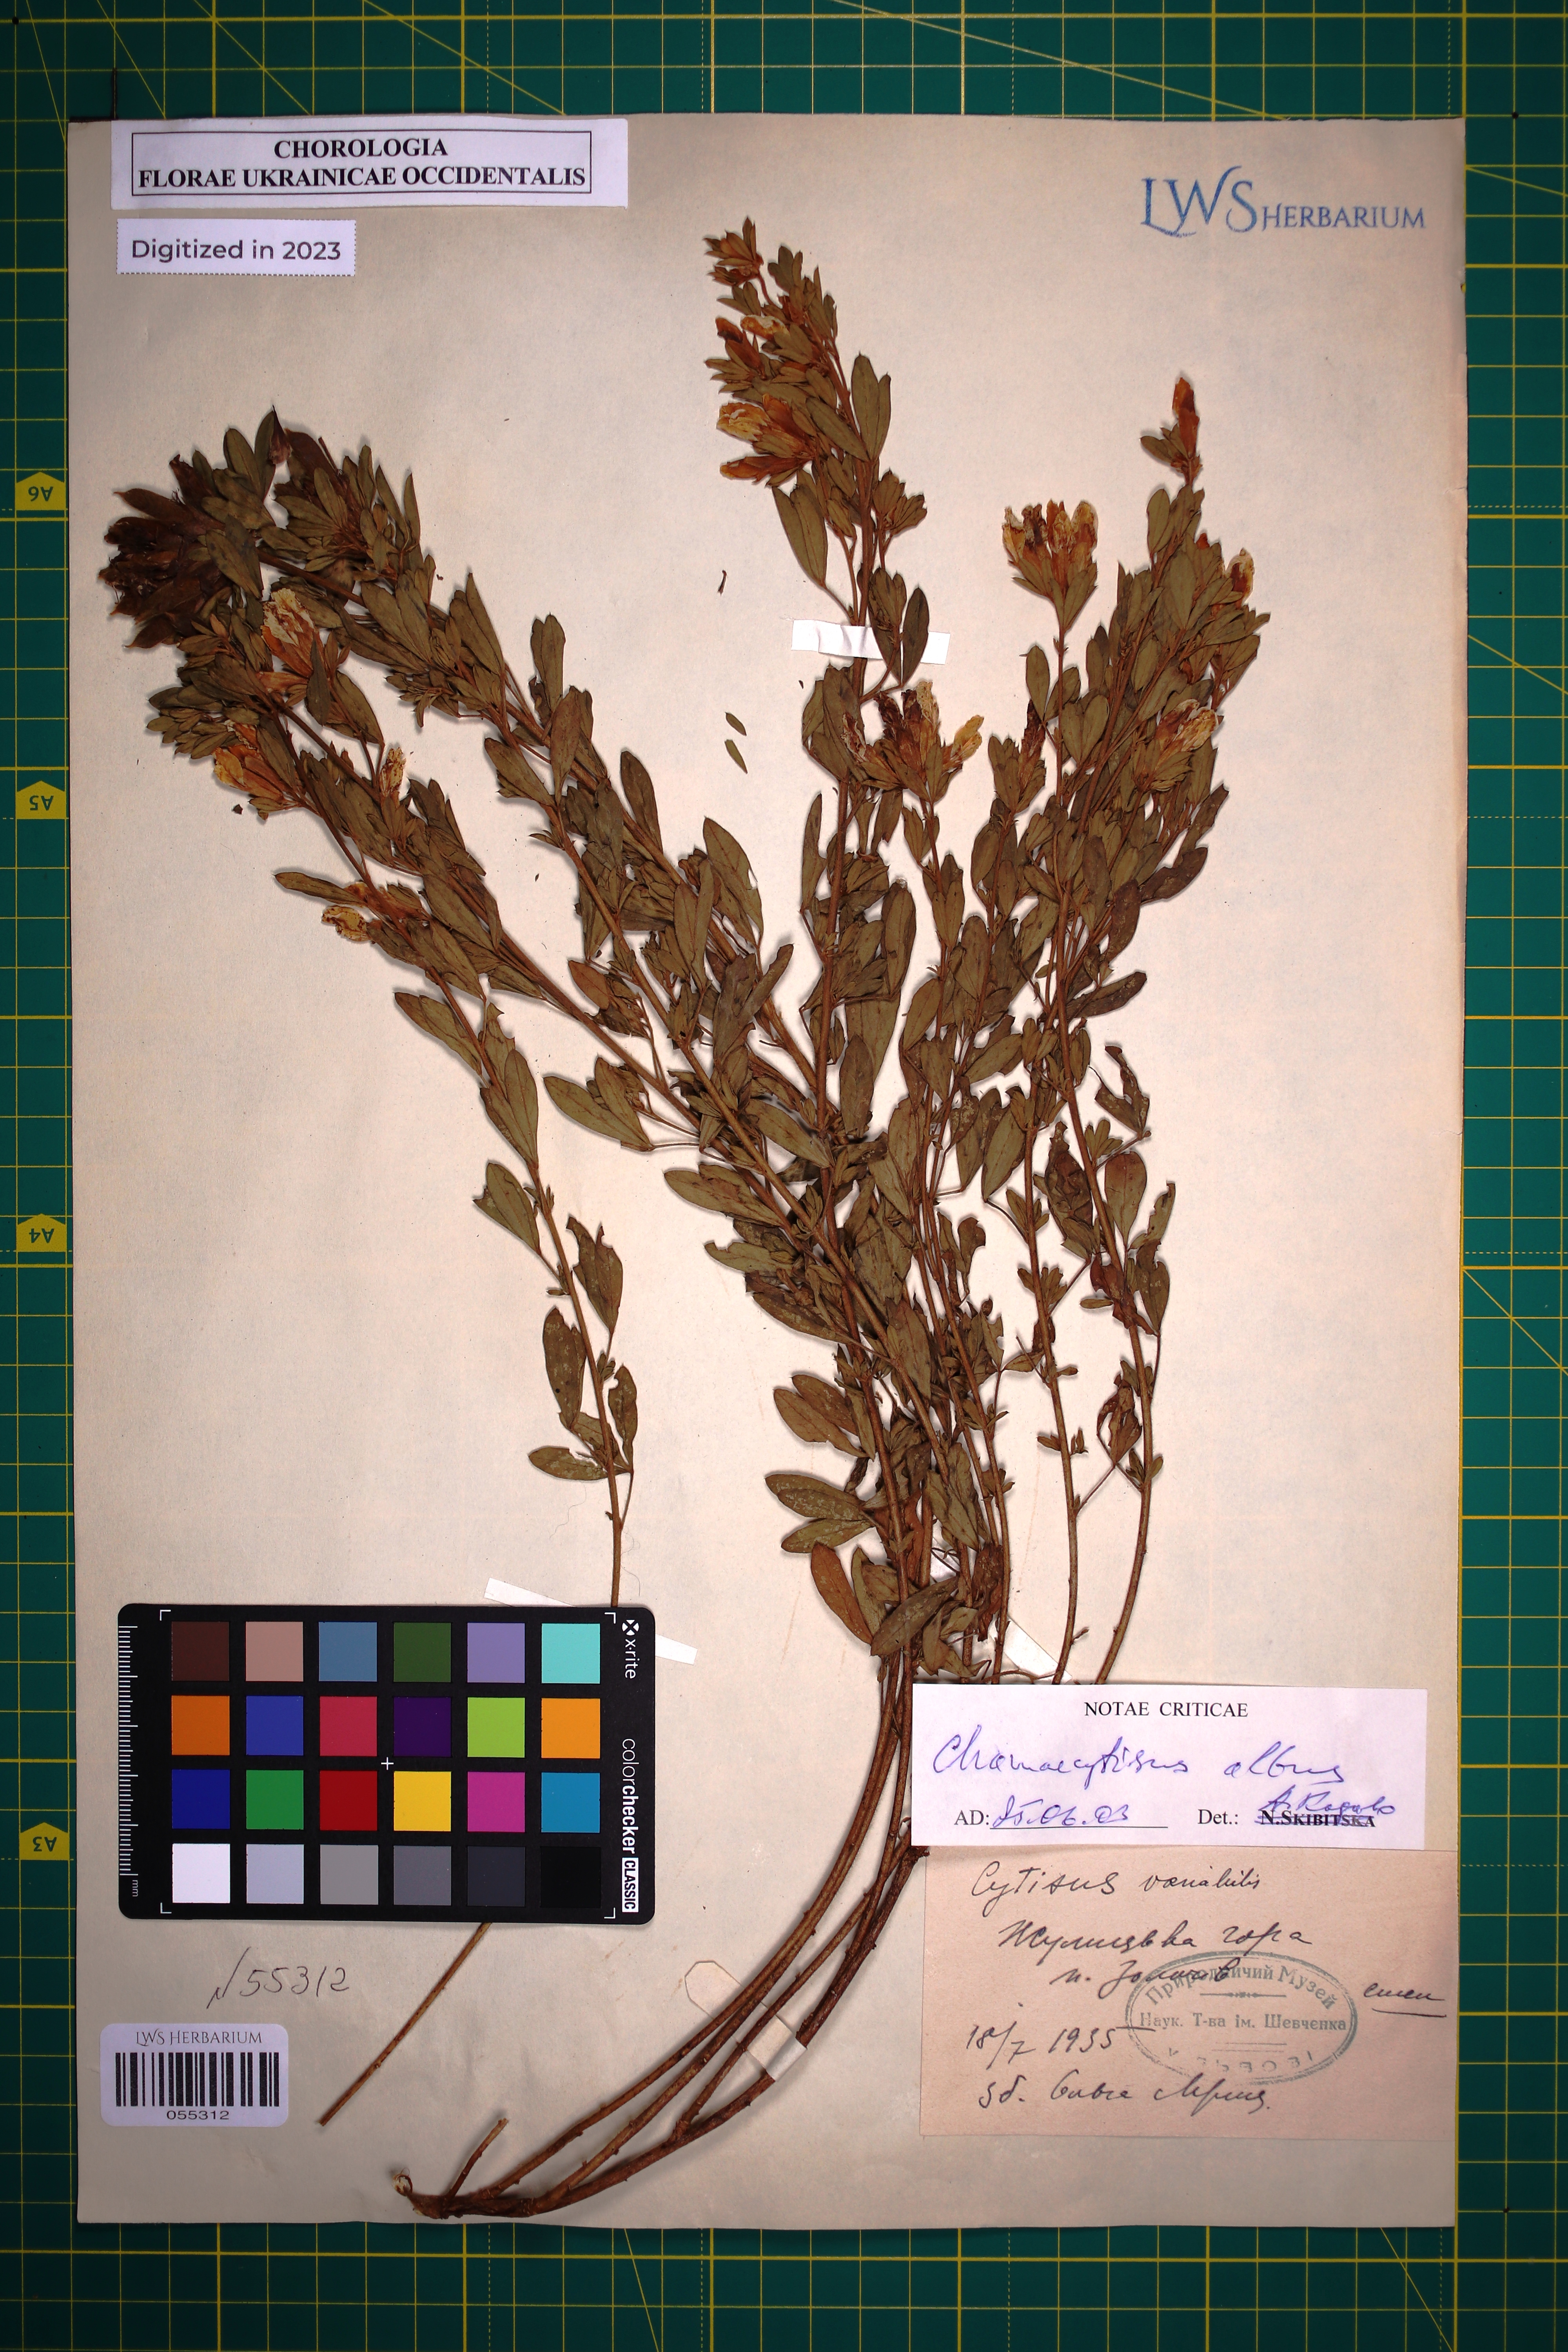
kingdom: Plantae
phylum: Tracheophyta
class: Magnoliopsida
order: Fabales
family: Fabaceae
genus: Chamaecytisus
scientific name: Chamaecytisus albus
